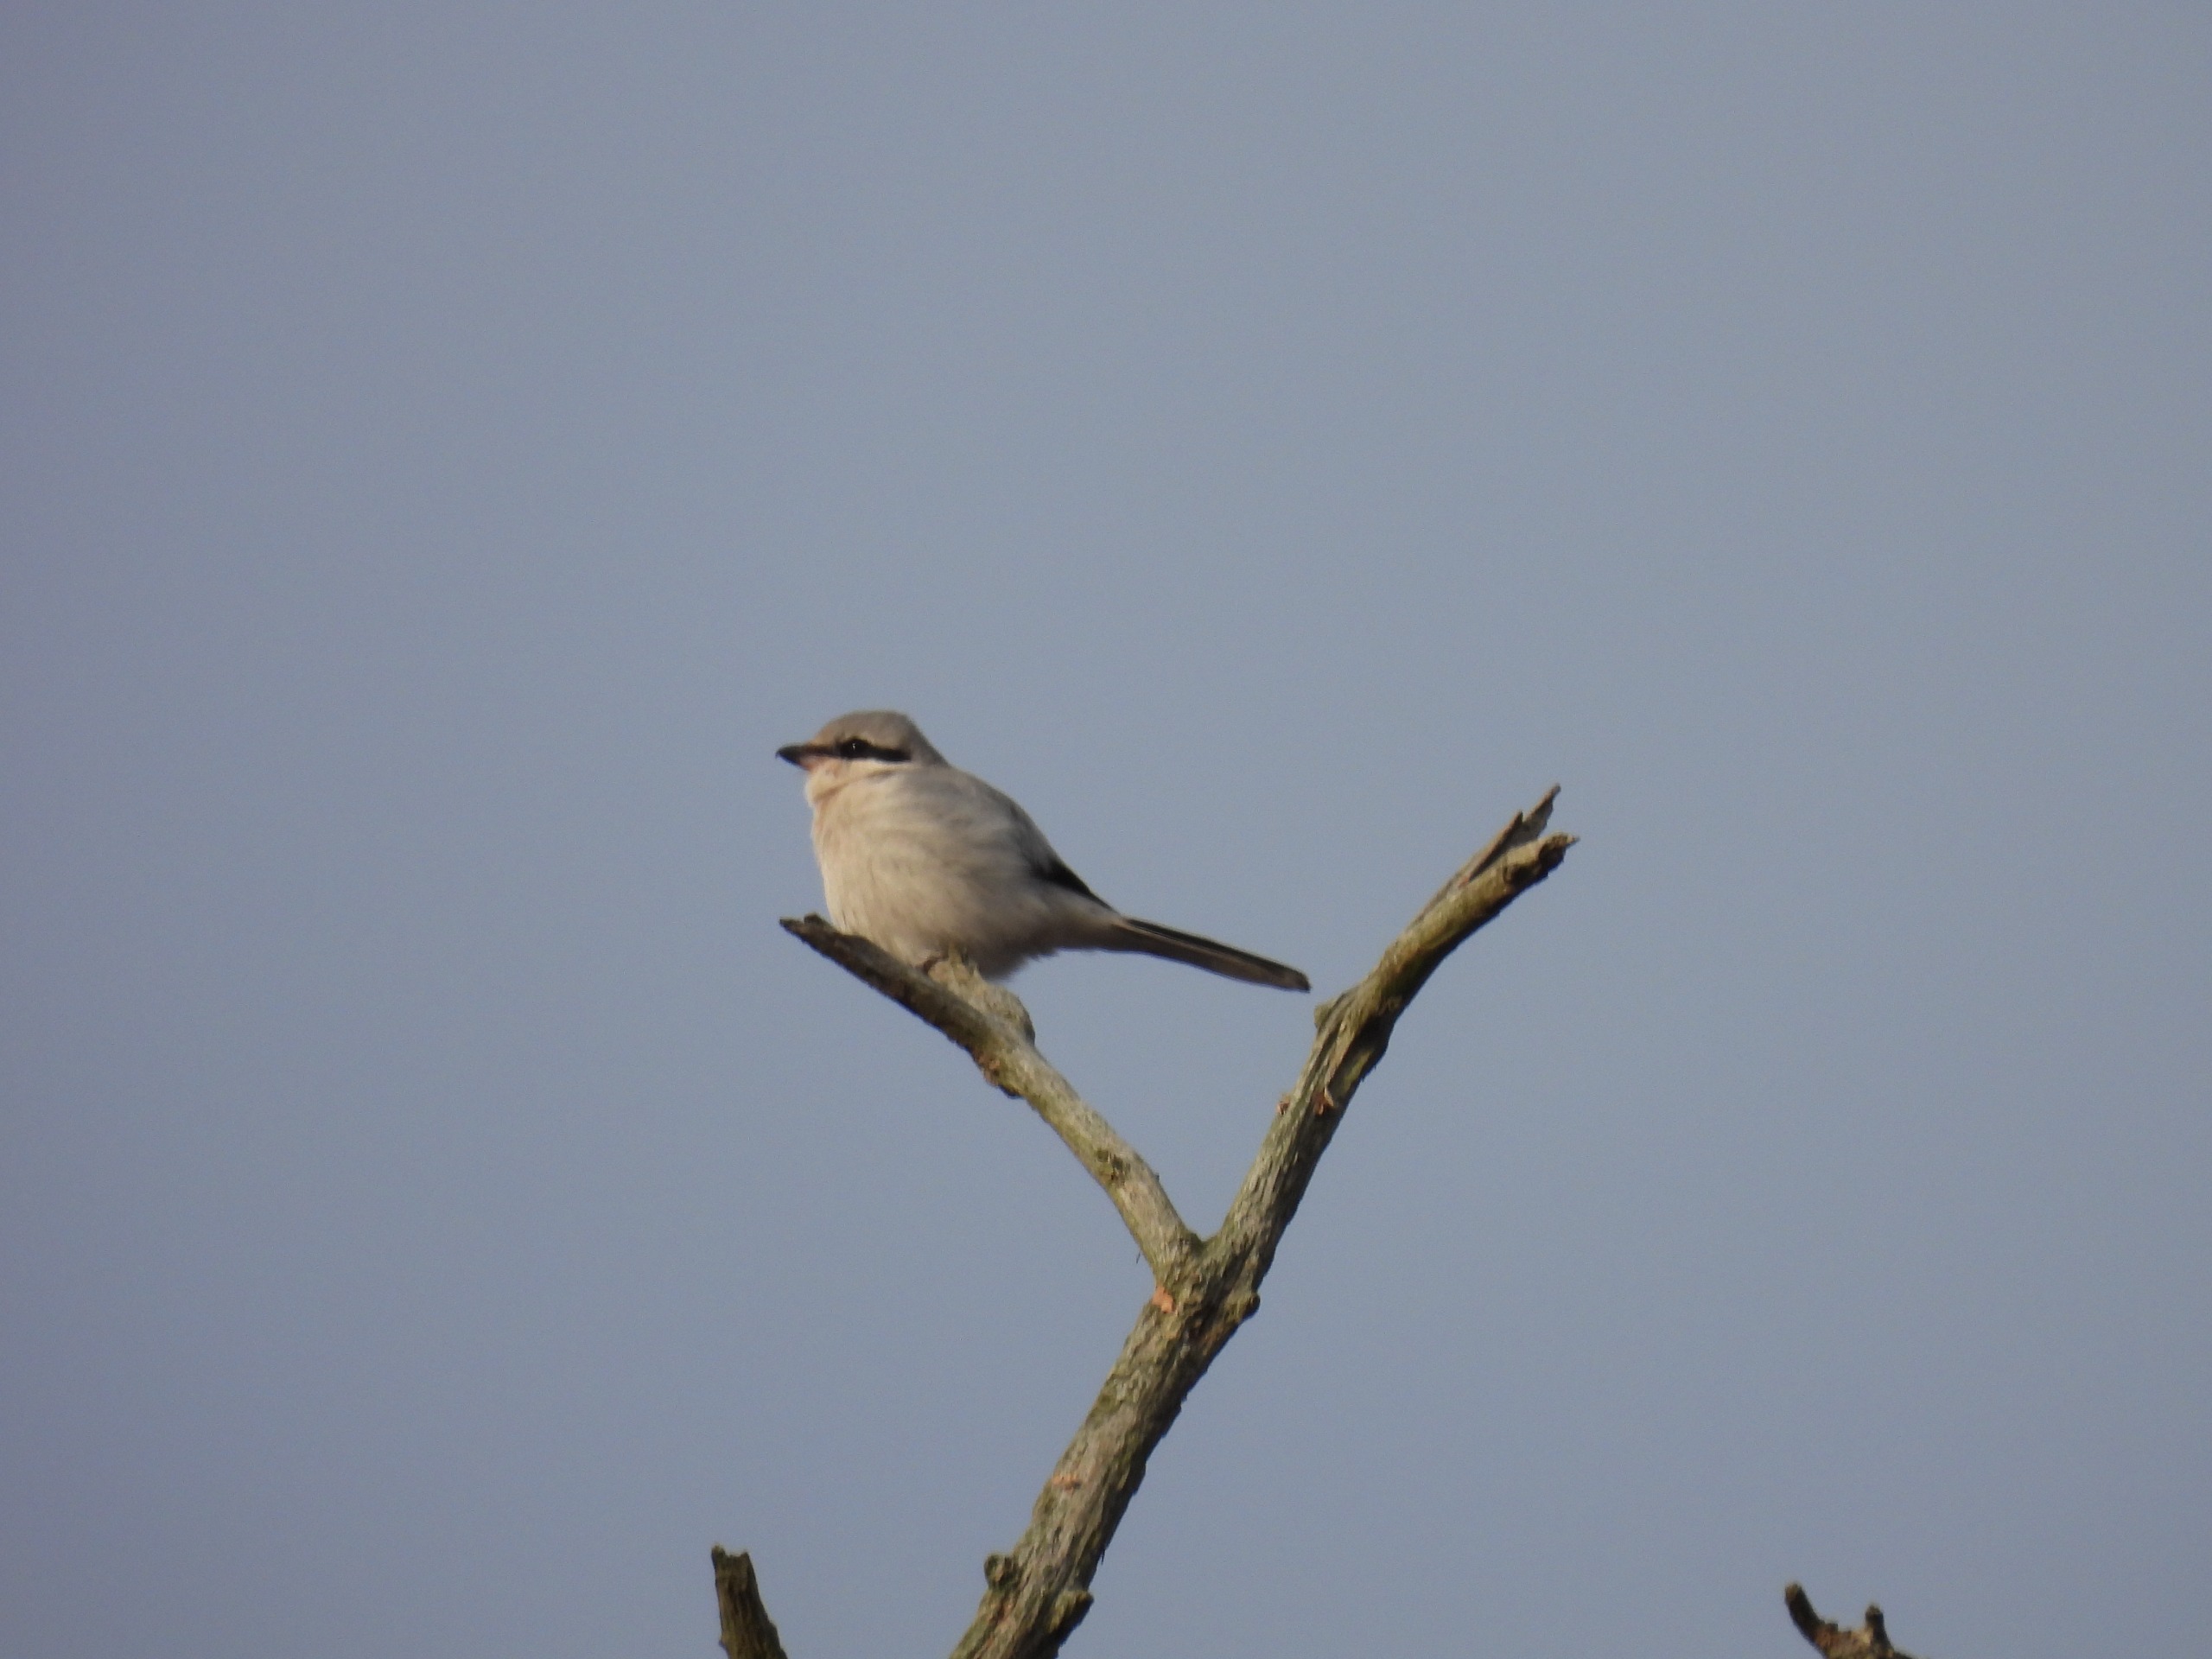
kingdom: Animalia
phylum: Chordata
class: Aves
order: Passeriformes
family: Laniidae
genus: Lanius
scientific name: Lanius excubitor
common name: Stor tornskade
